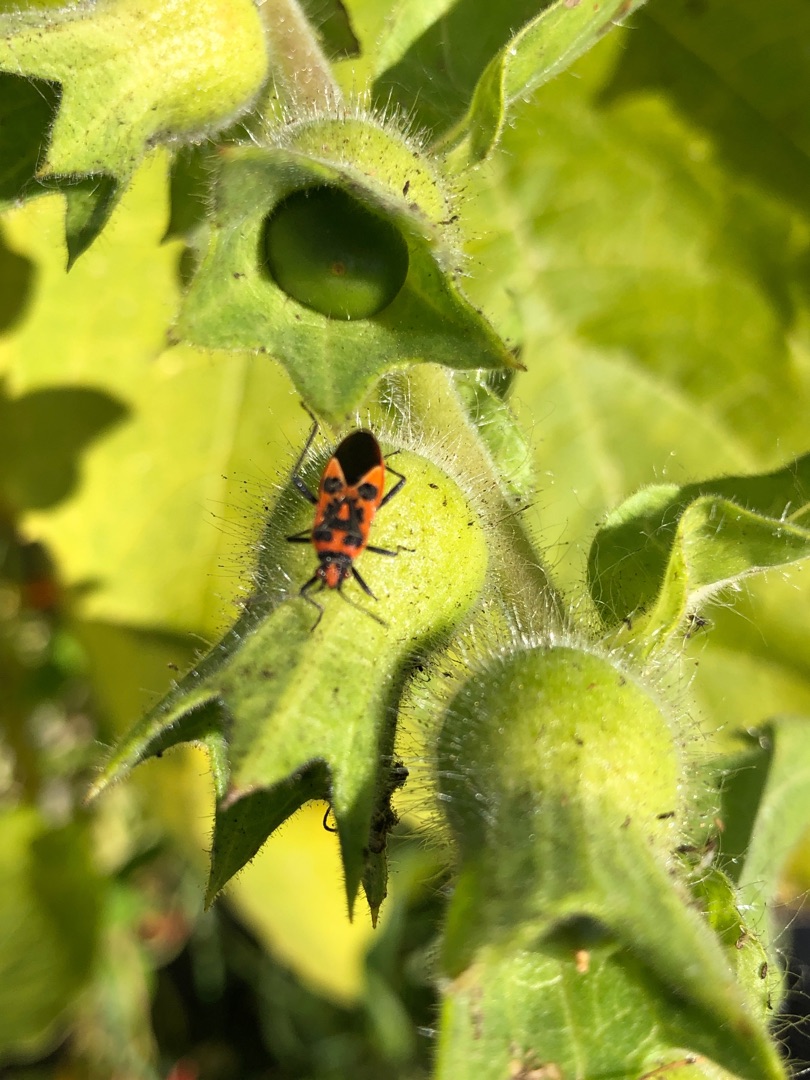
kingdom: Animalia
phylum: Arthropoda
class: Insecta
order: Hemiptera
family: Rhopalidae
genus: Corizus
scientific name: Corizus hyoscyami
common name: Rød kanttæge
